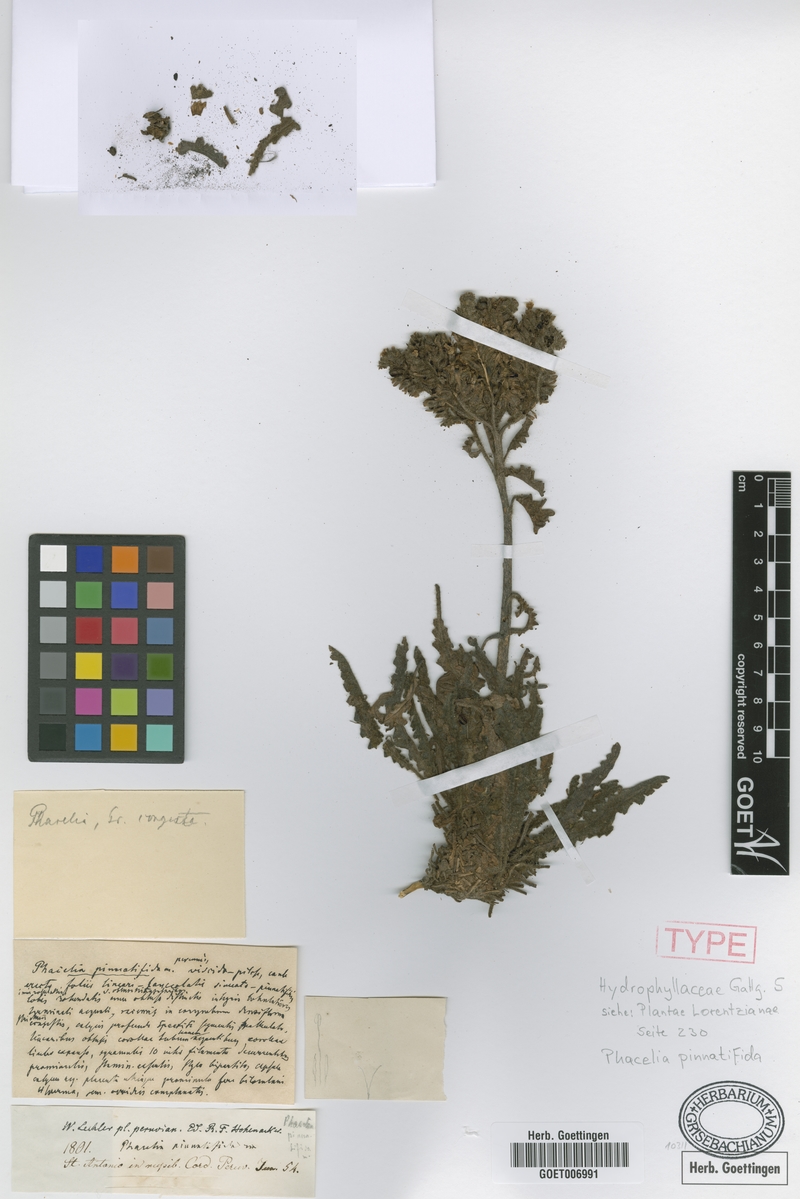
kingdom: Plantae
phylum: Tracheophyta
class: Magnoliopsida
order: Boraginales
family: Hydrophyllaceae
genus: Phacelia
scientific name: Phacelia pinnatifida
